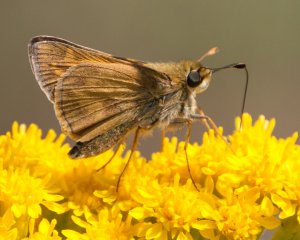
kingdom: Animalia
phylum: Arthropoda
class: Insecta
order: Lepidoptera
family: Hesperiidae
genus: Atalopedes
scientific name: Atalopedes campestris
